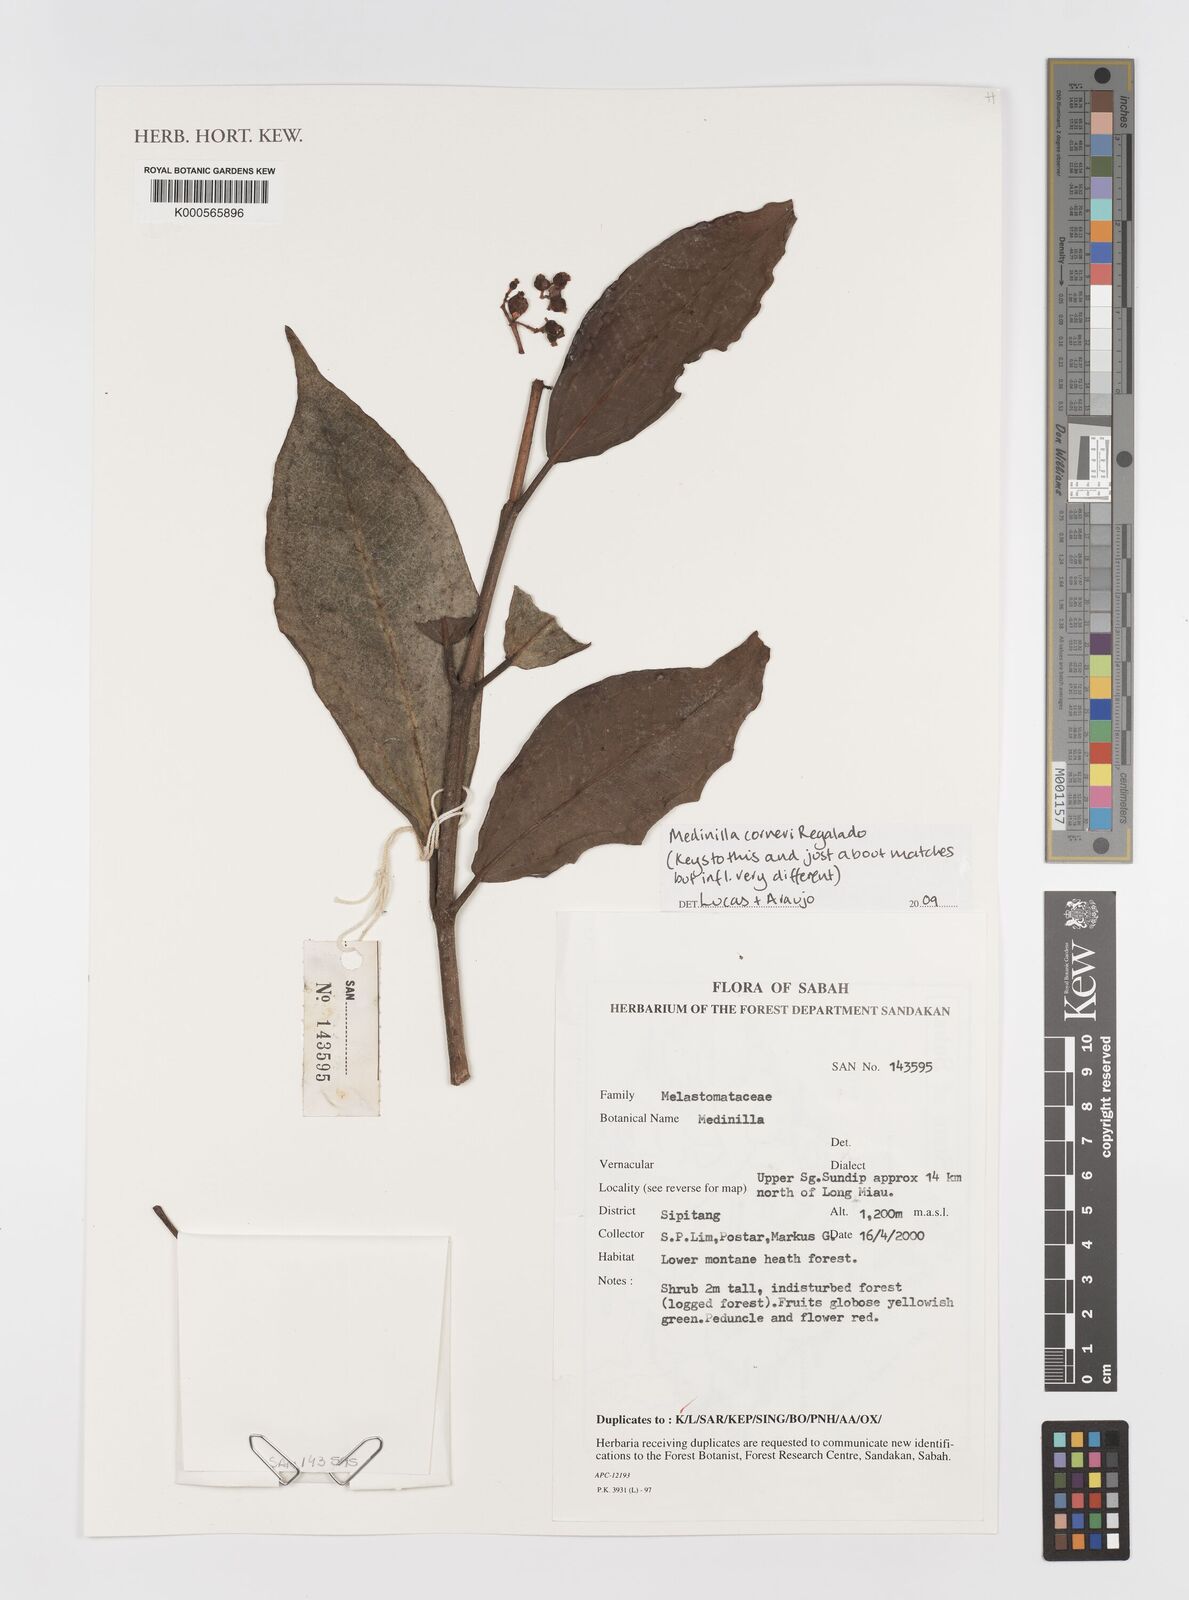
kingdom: Plantae
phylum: Tracheophyta
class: Magnoliopsida
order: Myrtales
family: Melastomataceae
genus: Medinilla
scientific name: Medinilla corneri
